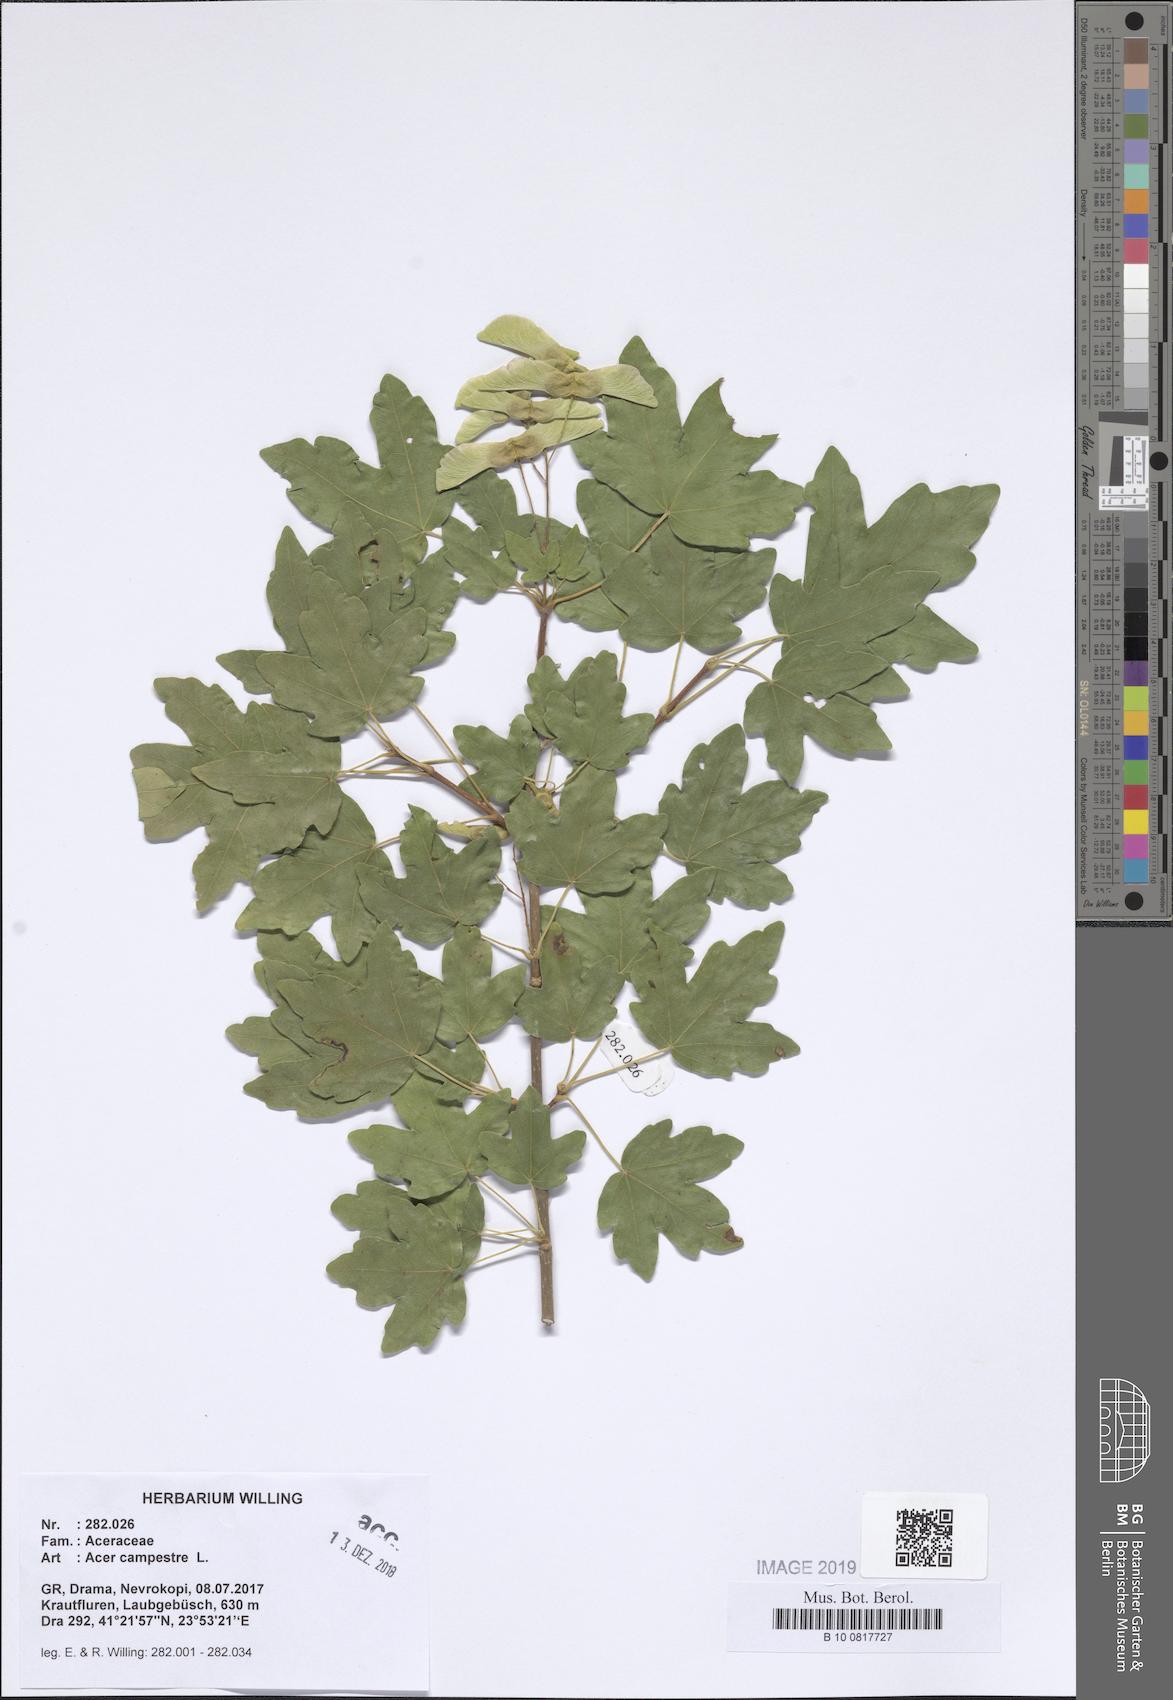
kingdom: Plantae
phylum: Tracheophyta
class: Magnoliopsida
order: Sapindales
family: Sapindaceae
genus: Acer
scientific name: Acer campestre
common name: Field maple
